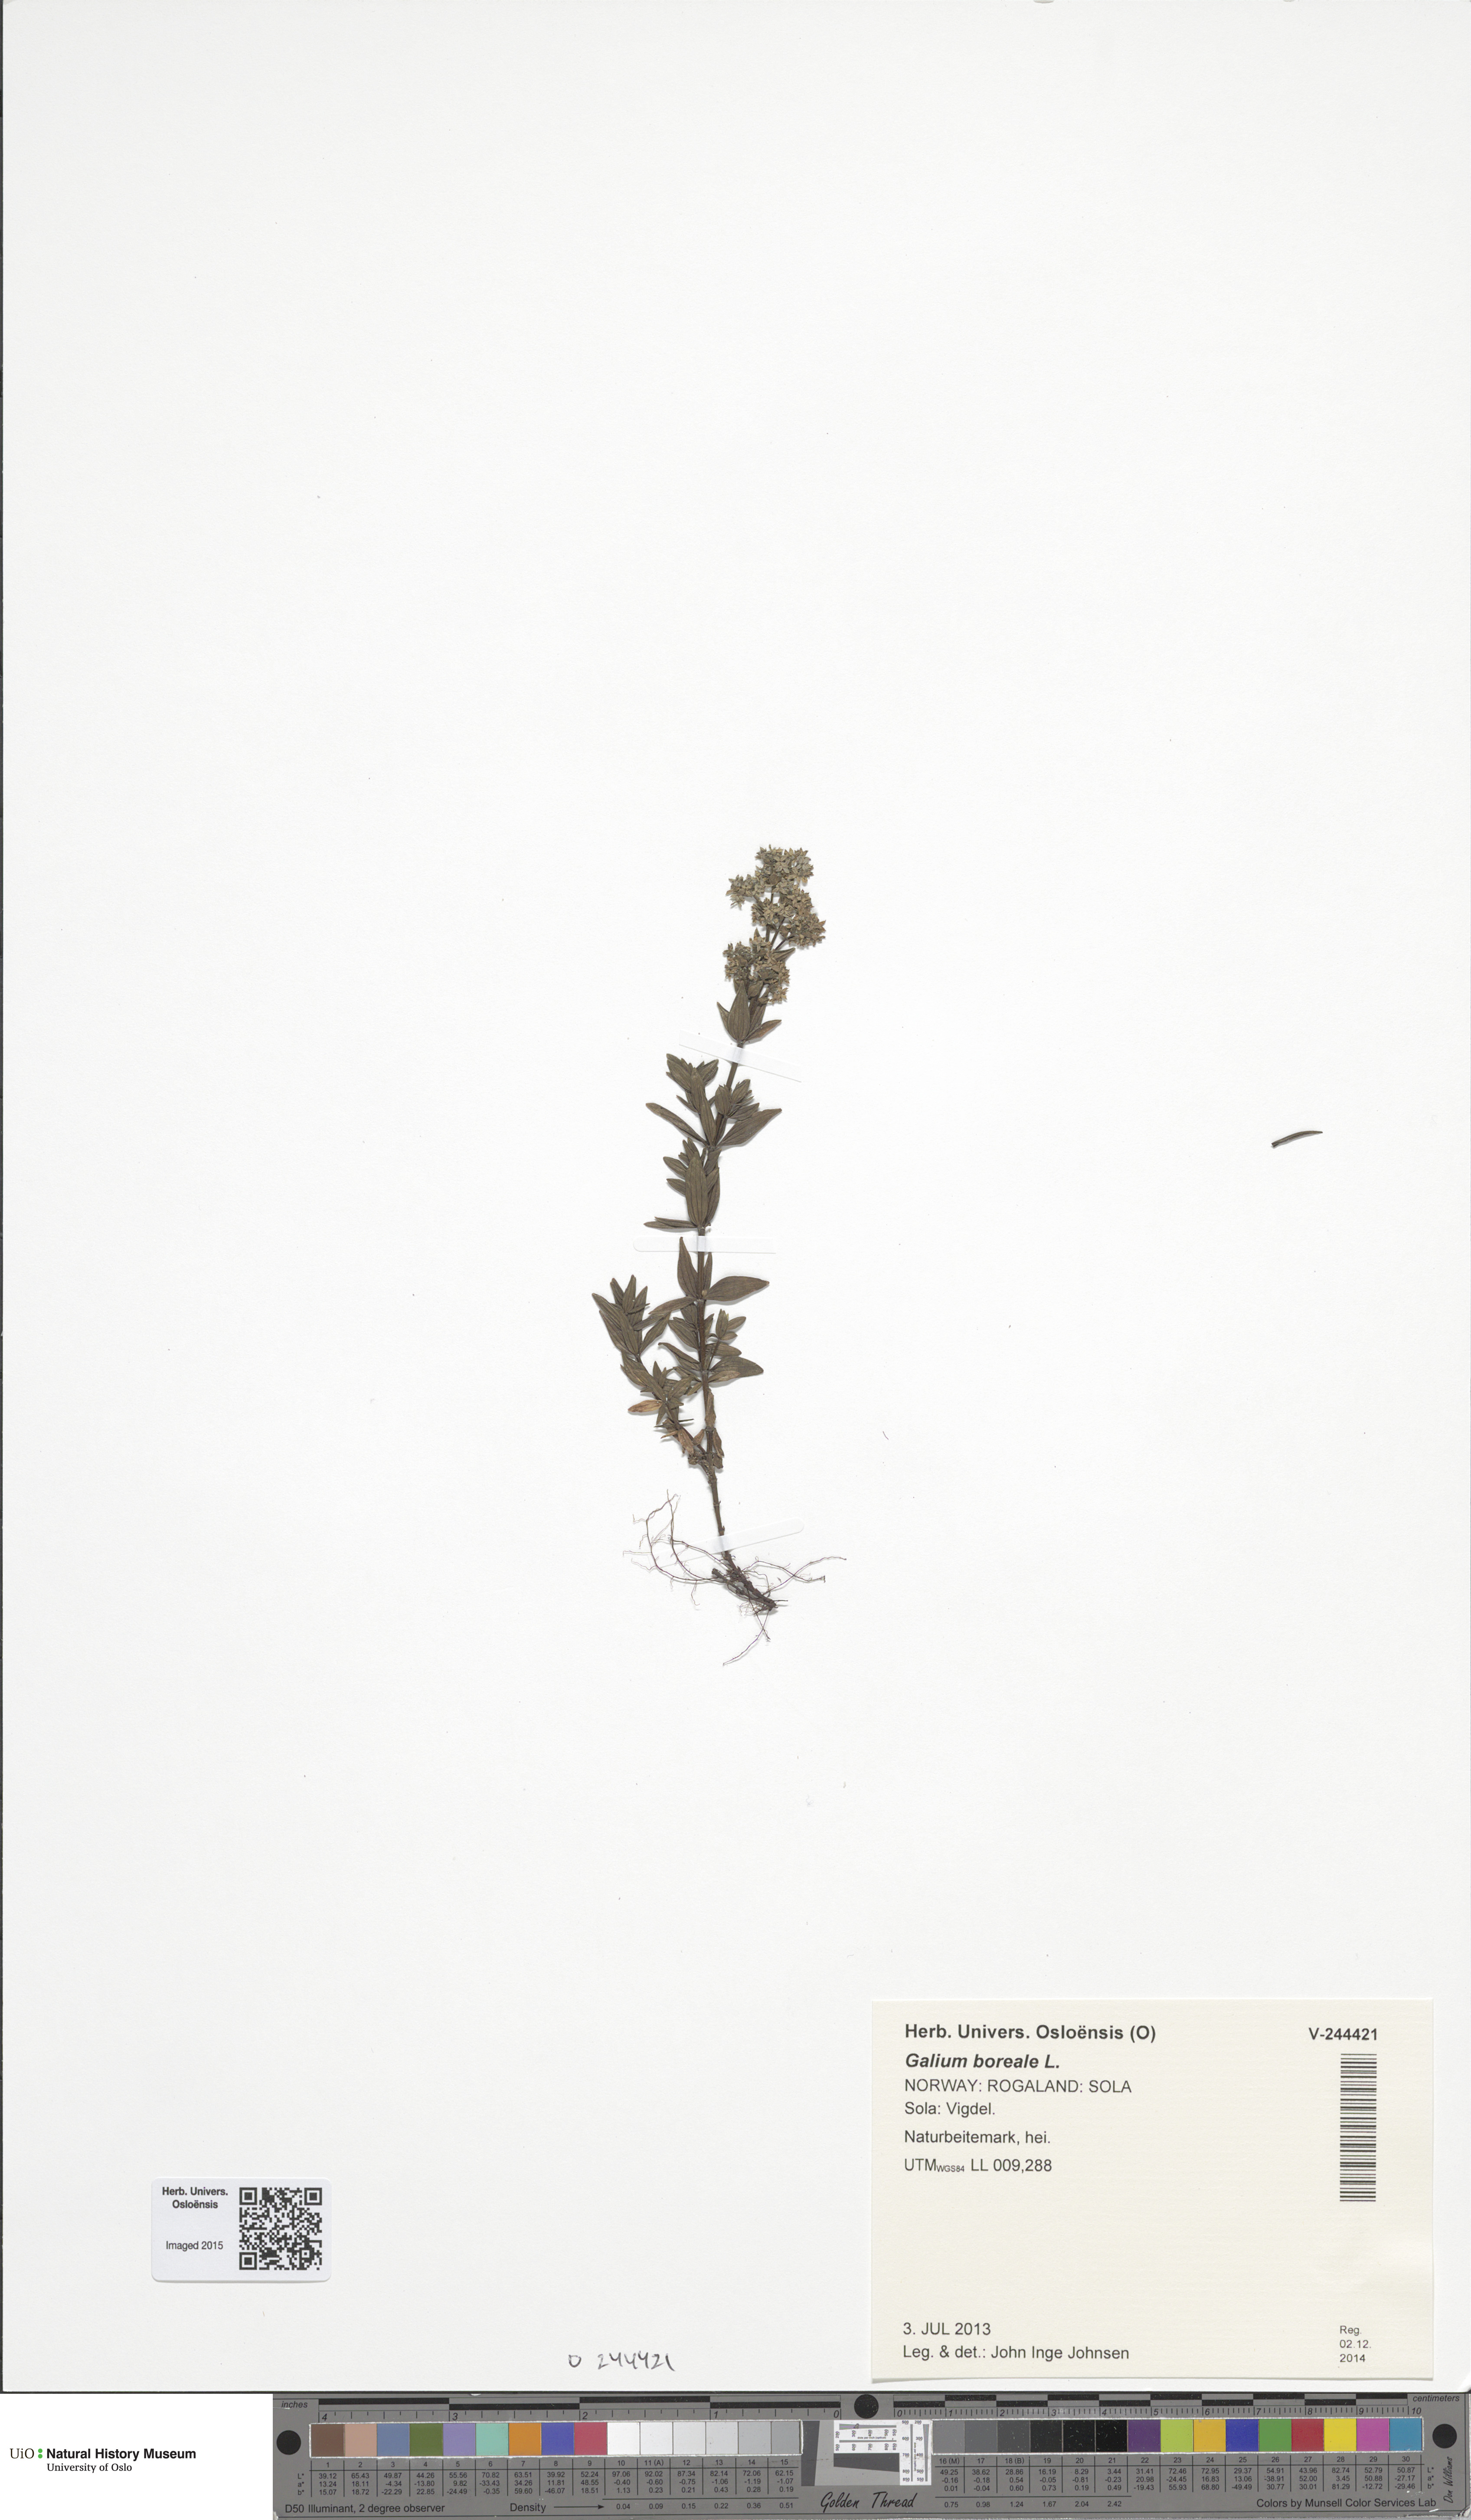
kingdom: Plantae
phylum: Tracheophyta
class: Magnoliopsida
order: Gentianales
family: Rubiaceae
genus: Galium
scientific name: Galium boreale
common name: Northern bedstraw
